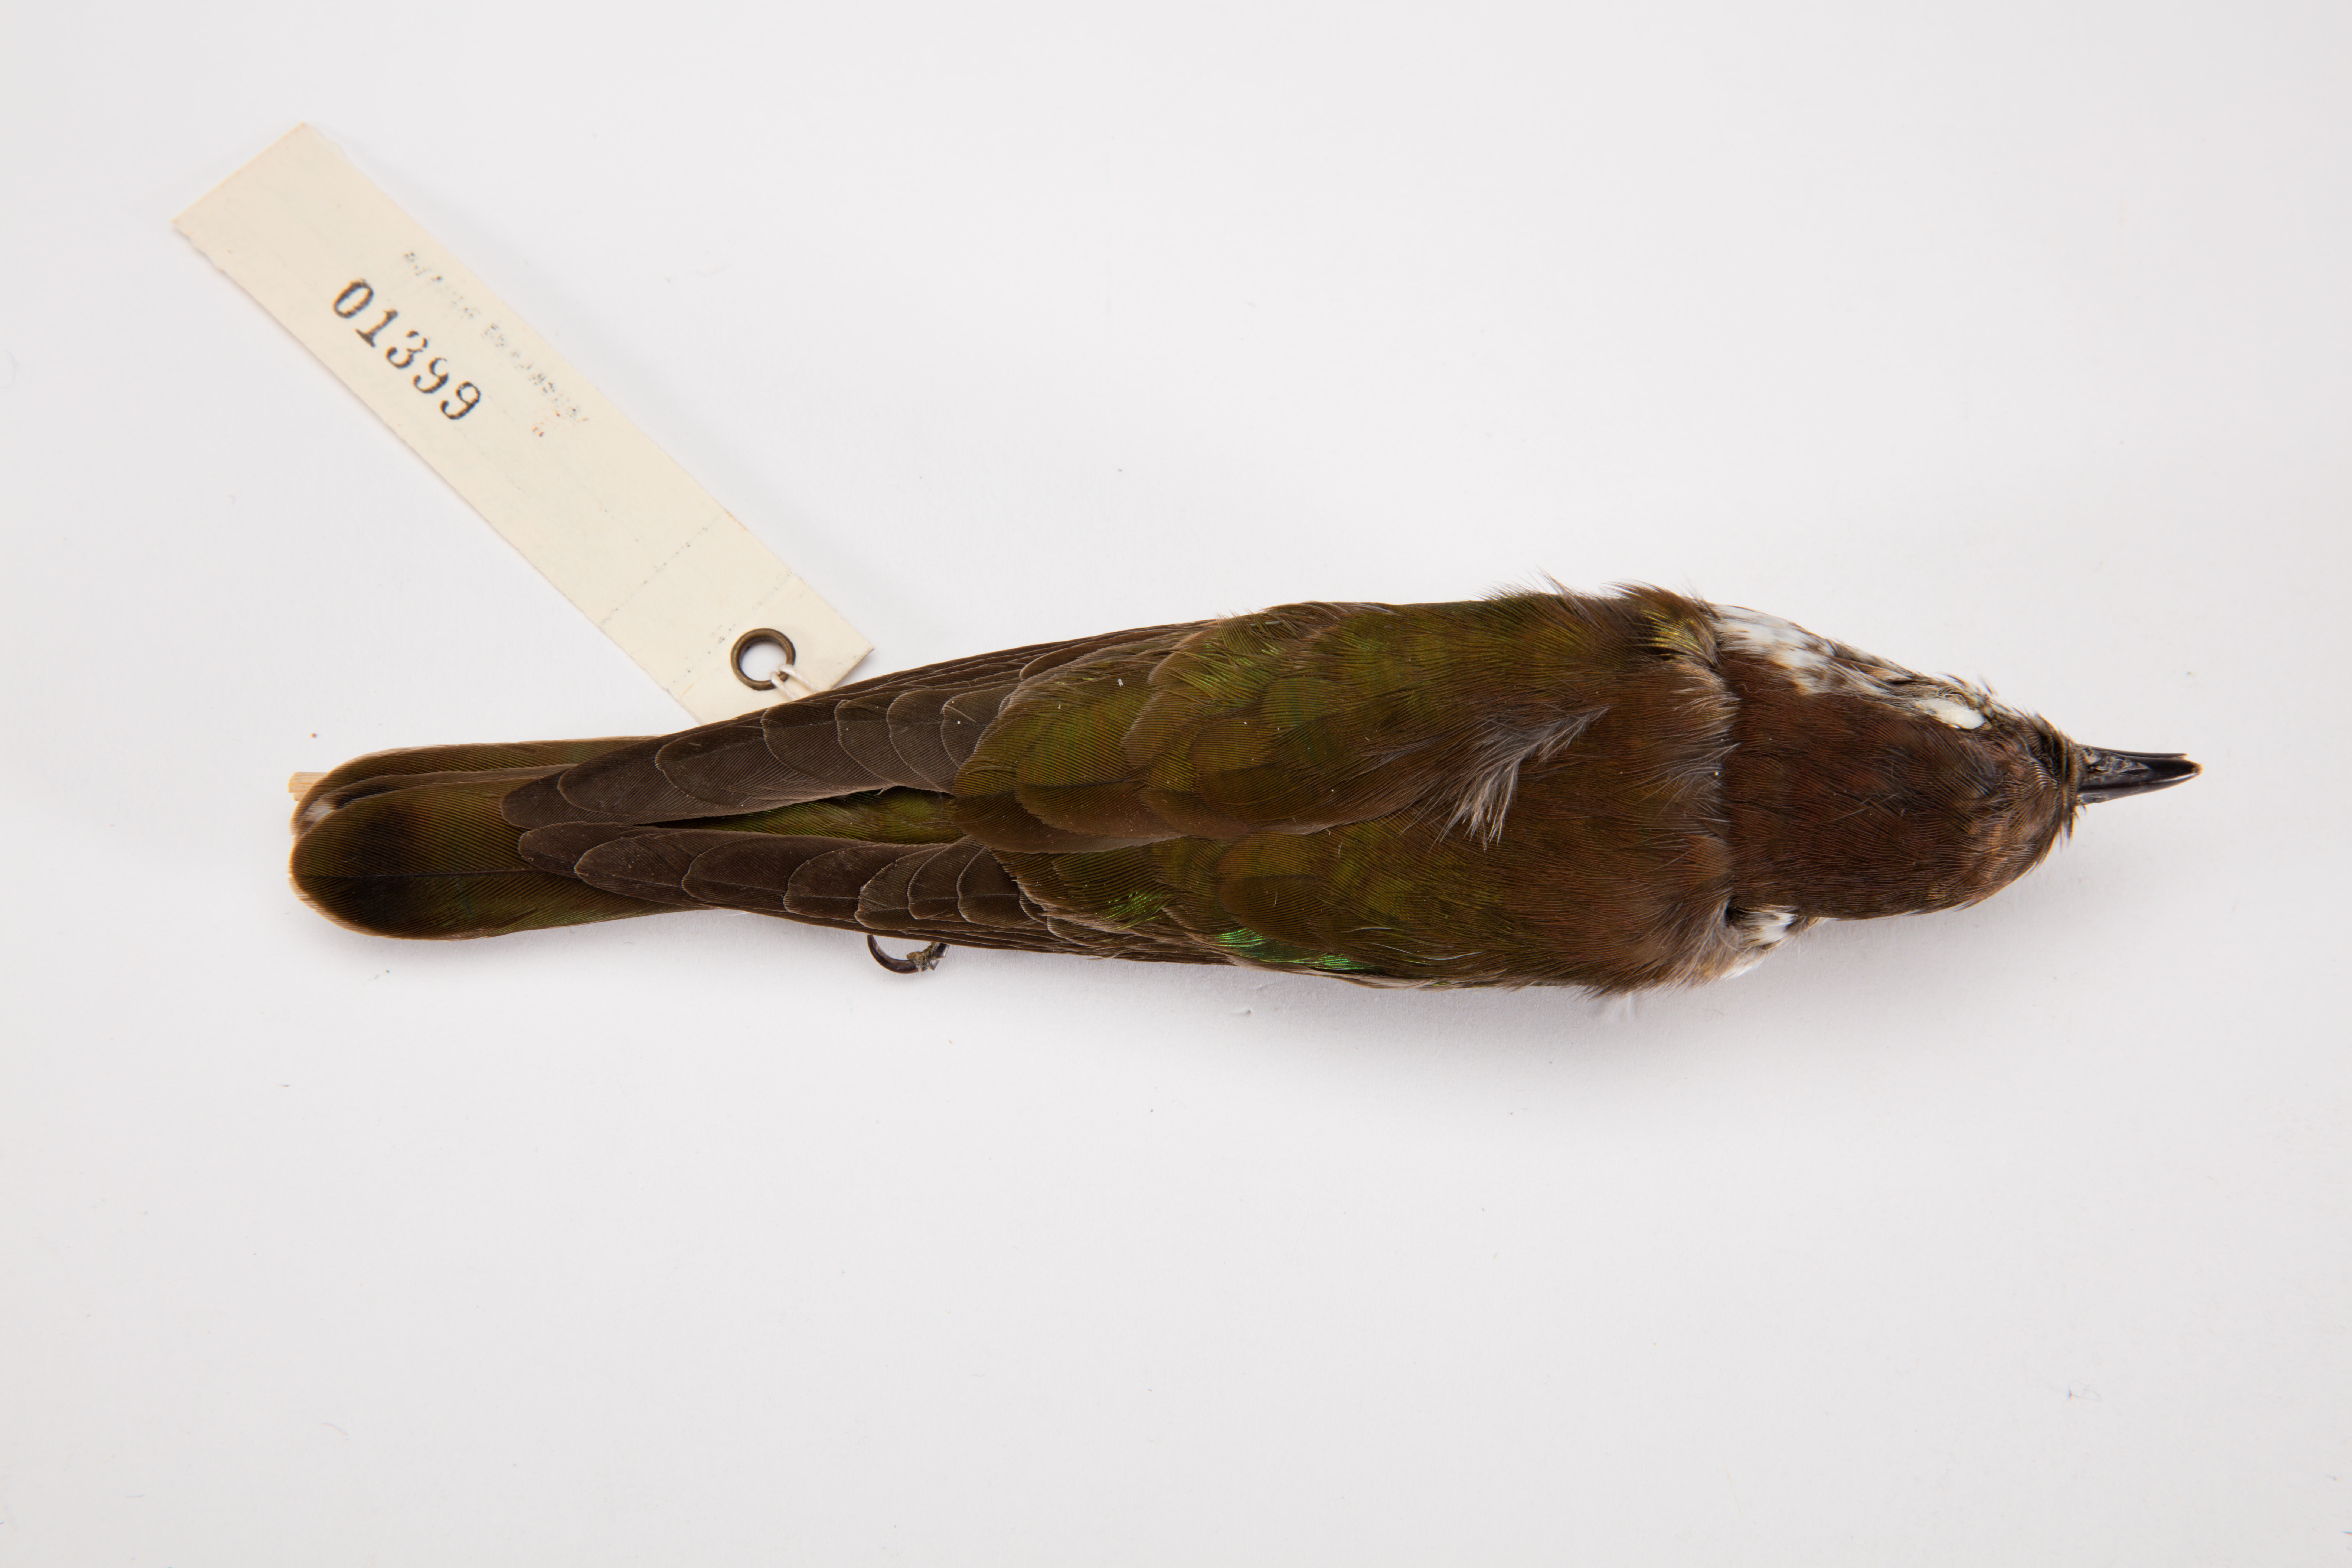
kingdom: Animalia
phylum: Chordata
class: Aves
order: Cuculiformes
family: Cuculidae
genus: Chrysococcyx
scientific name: Chrysococcyx lucidus
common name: Shining bronze cuckoo
